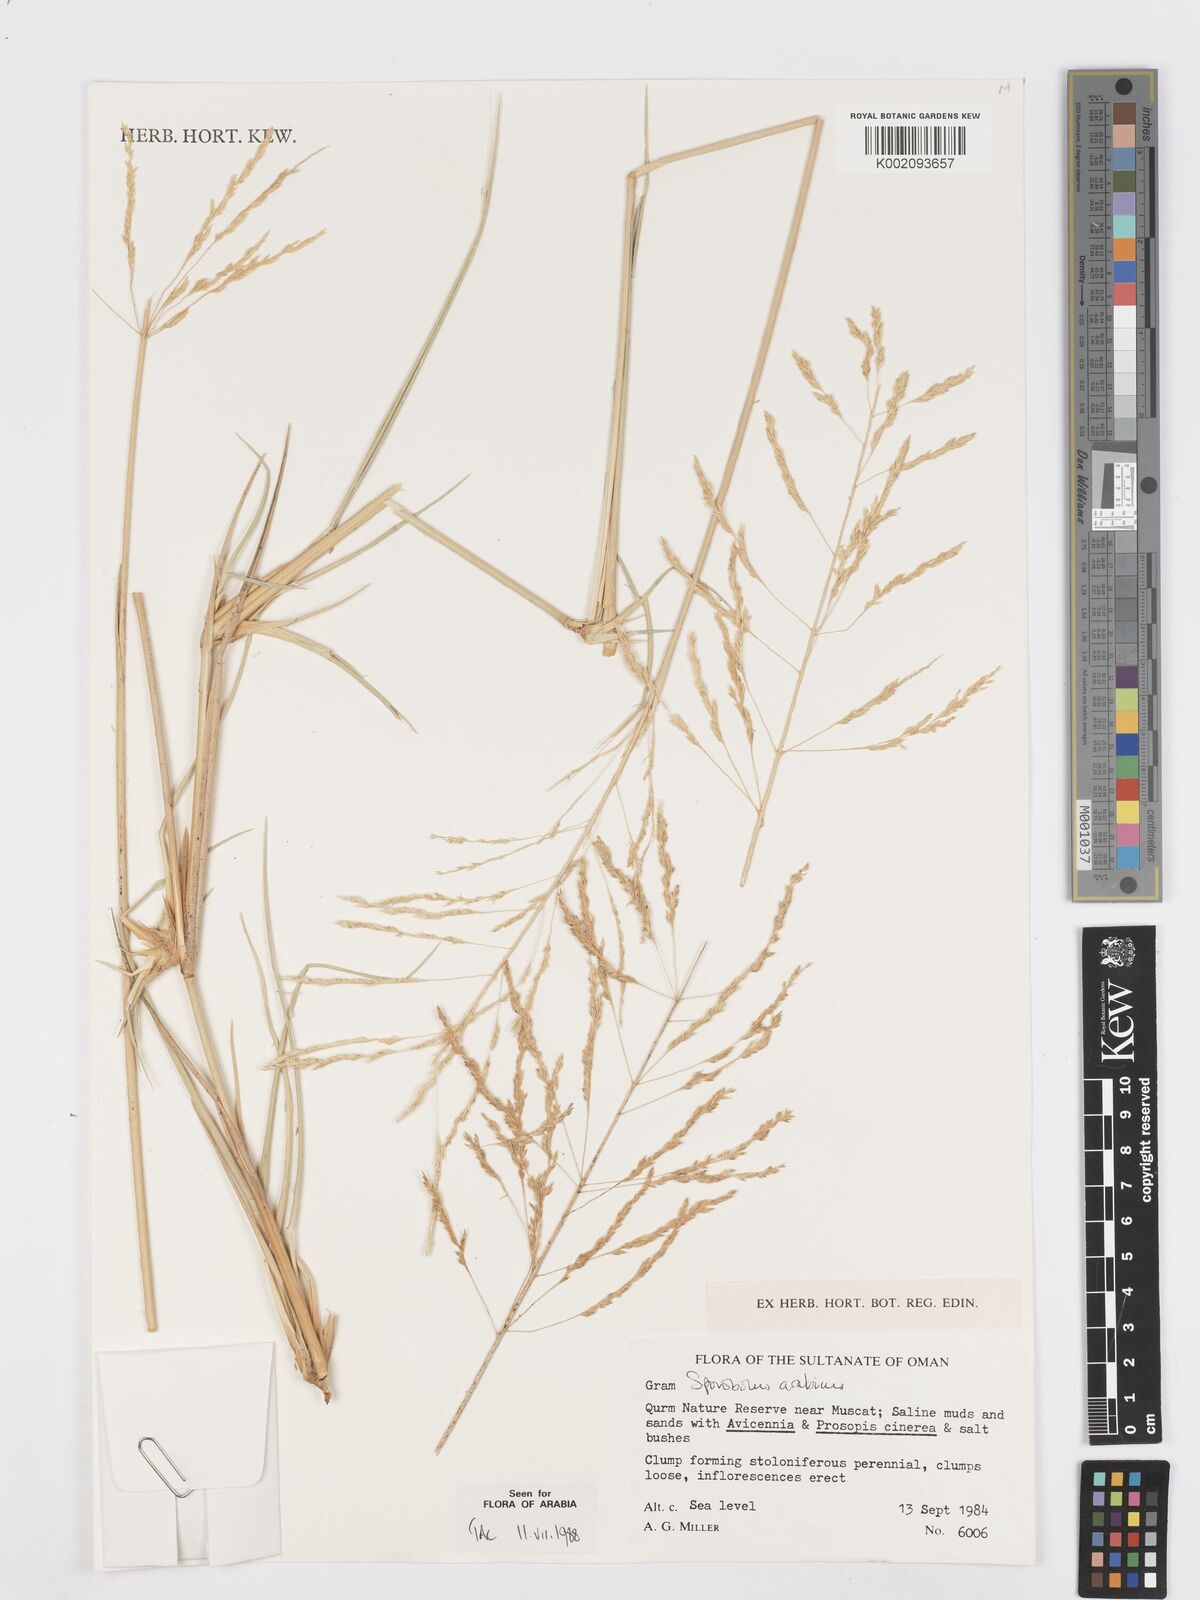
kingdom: Plantae
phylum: Tracheophyta
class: Liliopsida
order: Poales
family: Poaceae
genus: Sporobolus
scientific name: Sporobolus ioclados
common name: Pan dropseed
